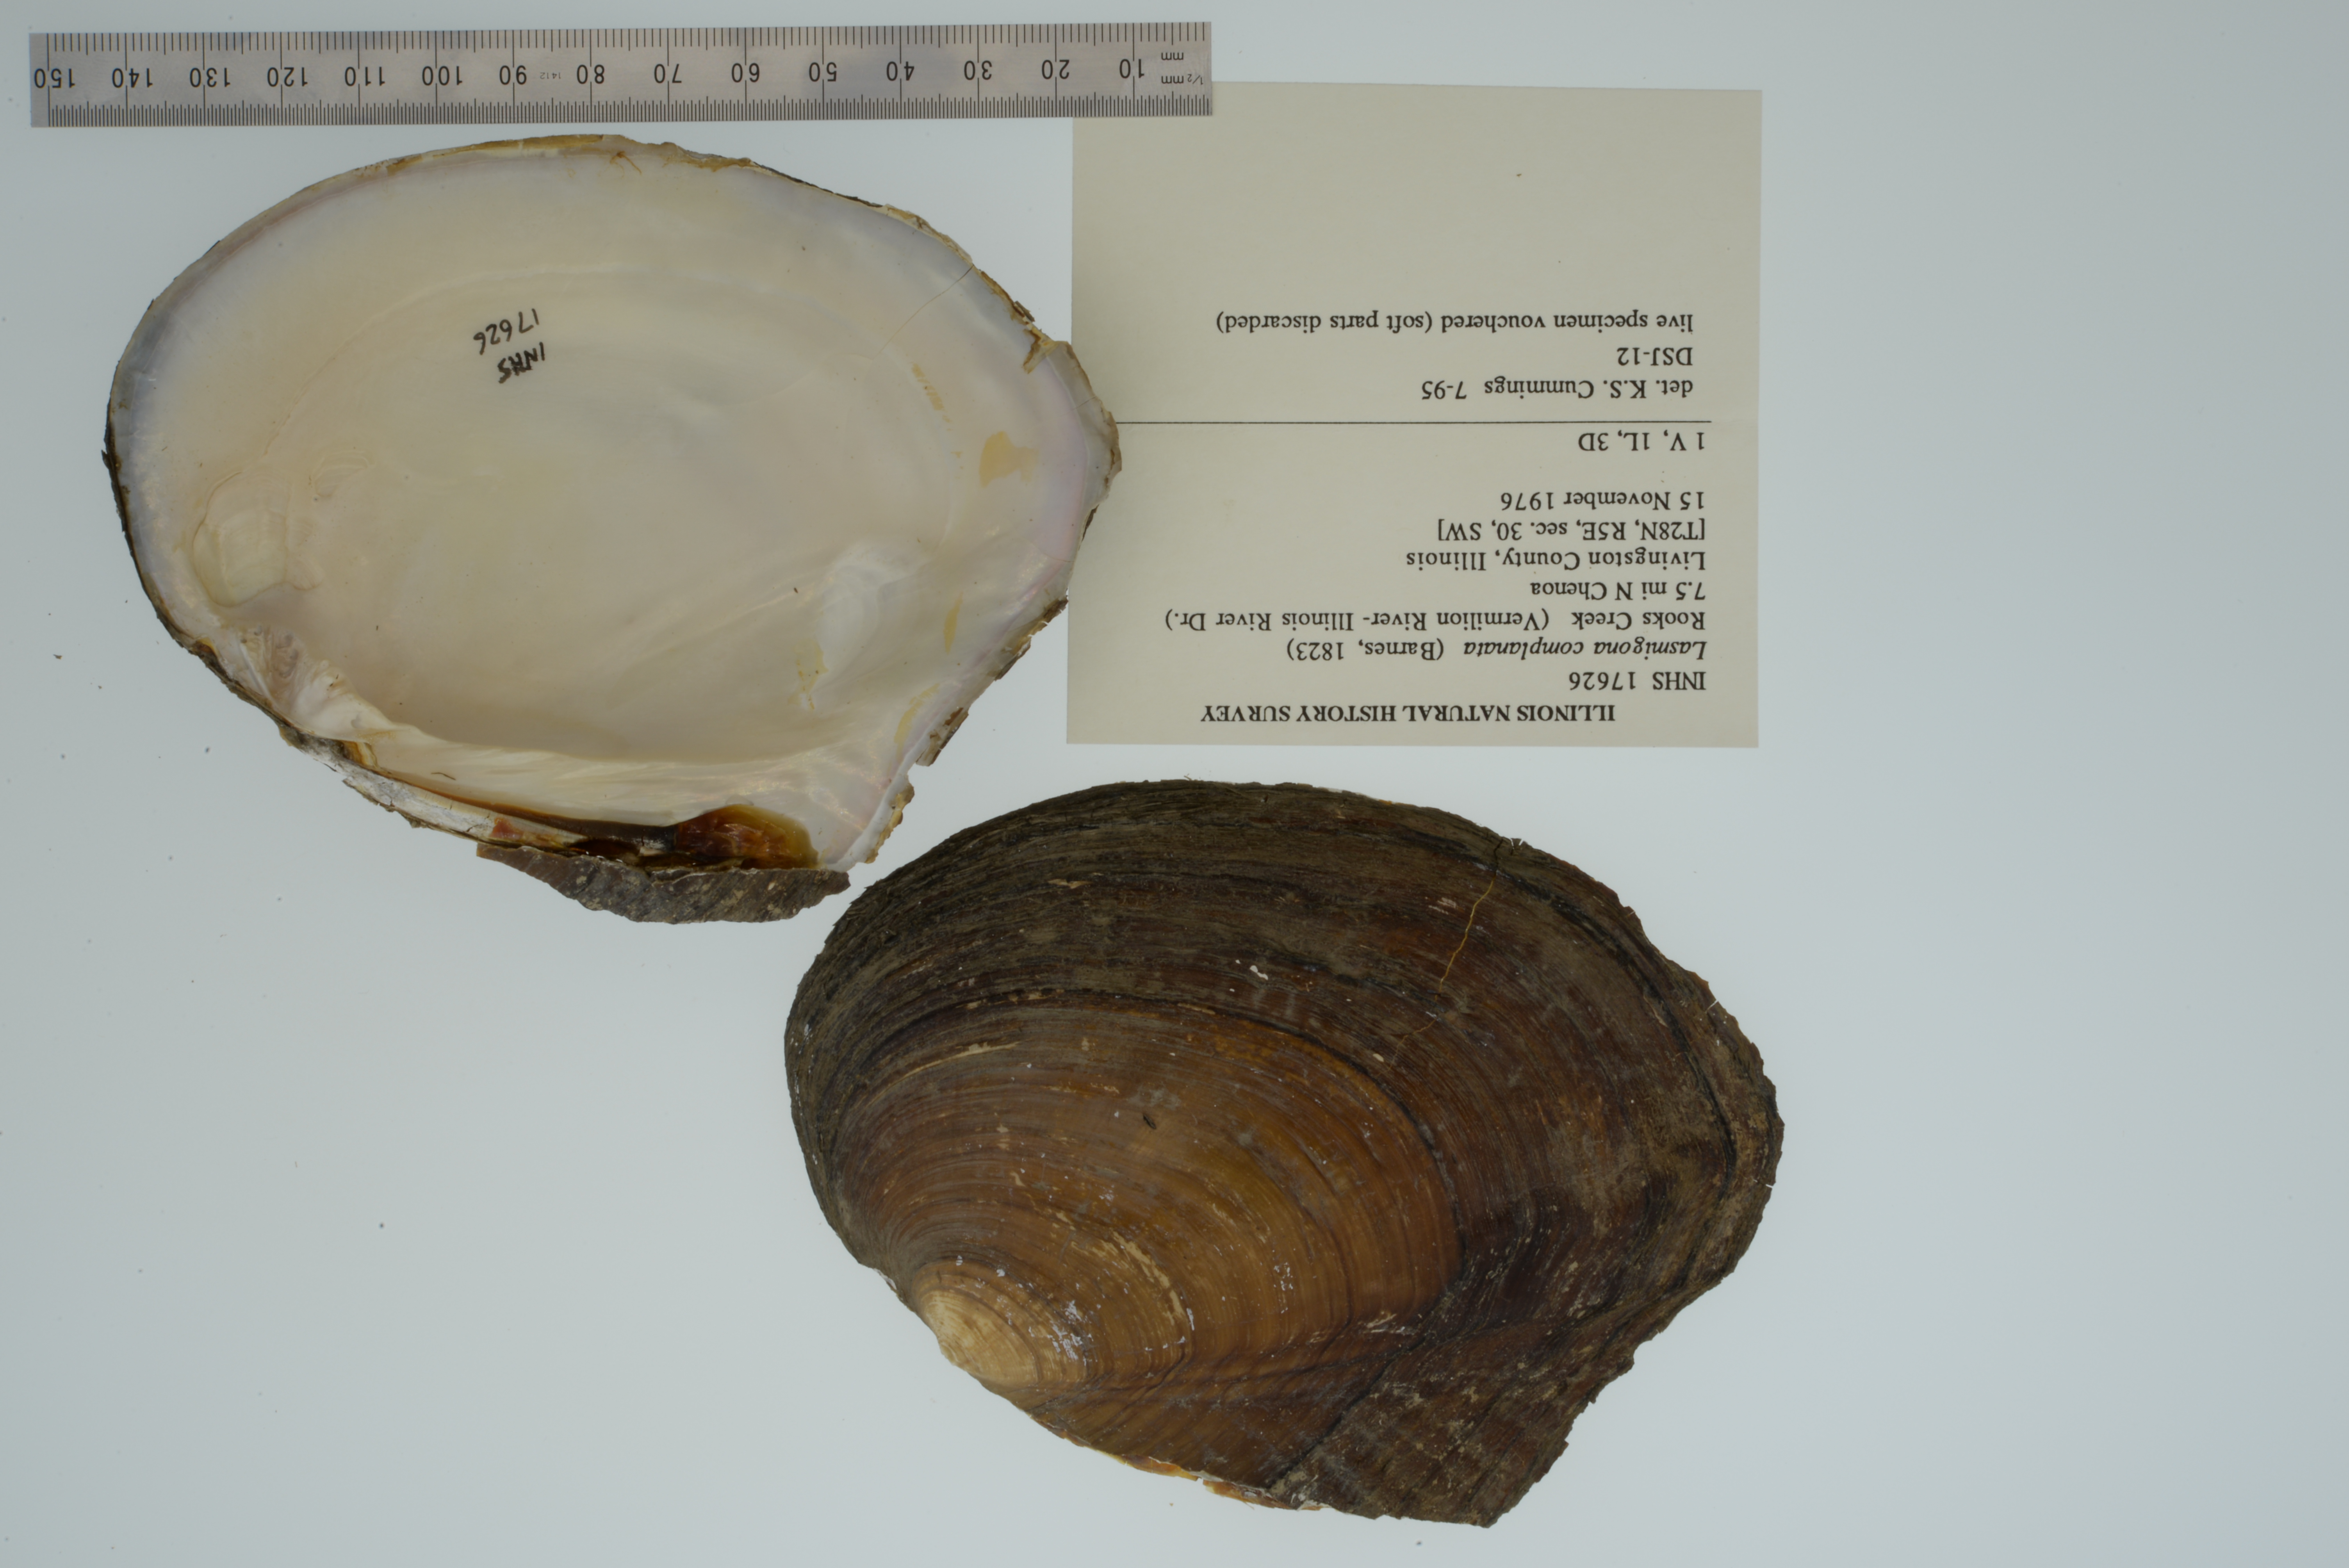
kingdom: Animalia
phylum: Mollusca
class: Bivalvia
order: Unionida
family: Unionidae
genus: Lasmigona
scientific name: Lasmigona complanata
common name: White heelsplitter
